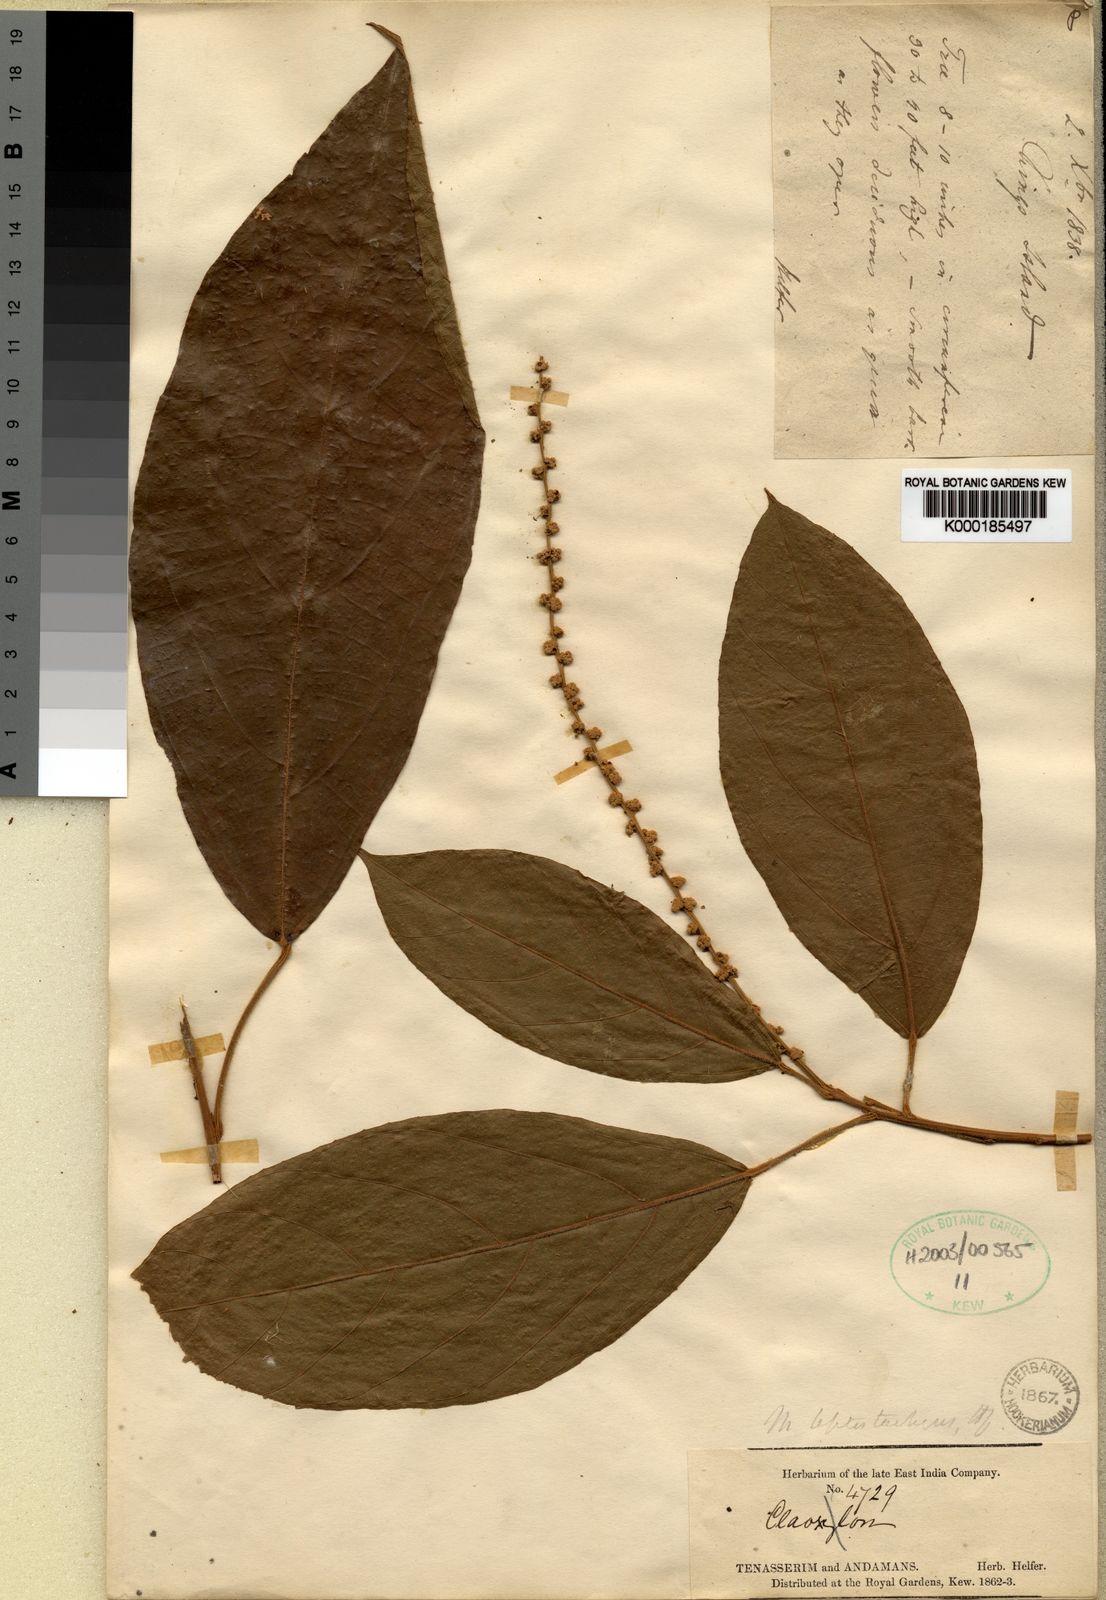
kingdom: Plantae
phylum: Tracheophyta
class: Magnoliopsida
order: Malpighiales
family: Euphorbiaceae
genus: Mallotus
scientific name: Mallotus leptostachyus
